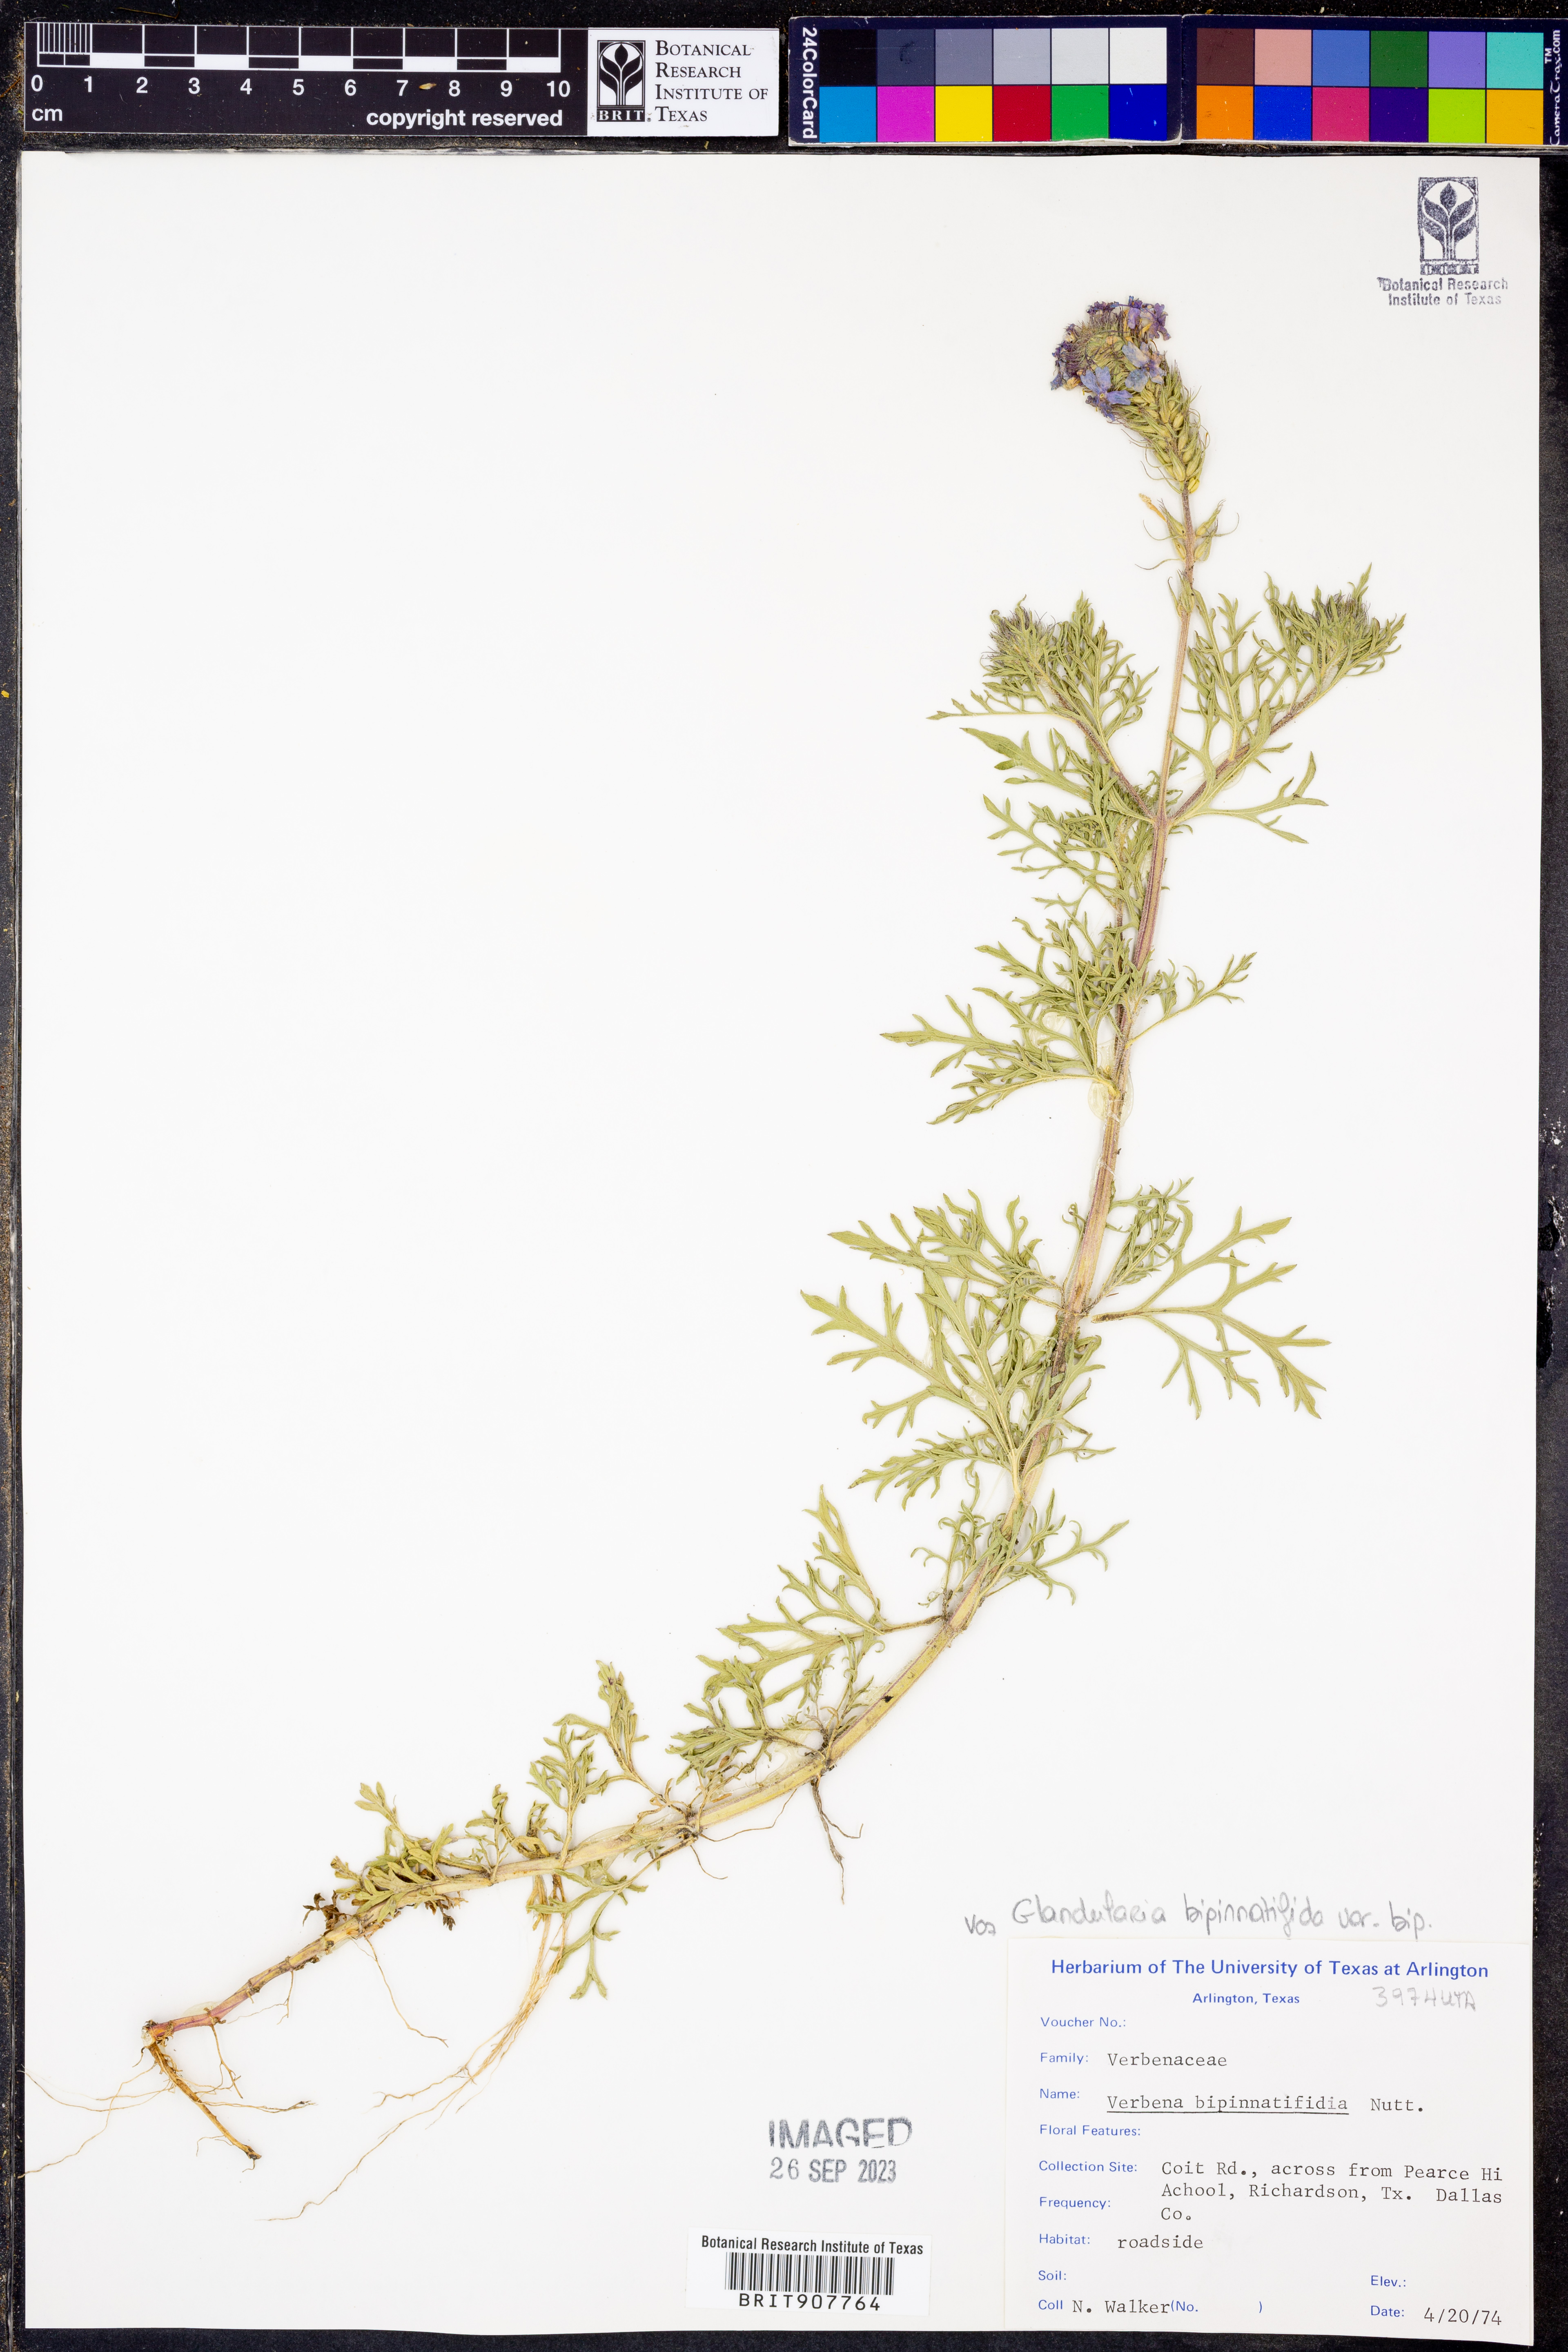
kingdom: Plantae
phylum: Tracheophyta
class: Magnoliopsida
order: Lamiales
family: Verbenaceae
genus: Verbena
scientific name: Verbena bipinnatifida
